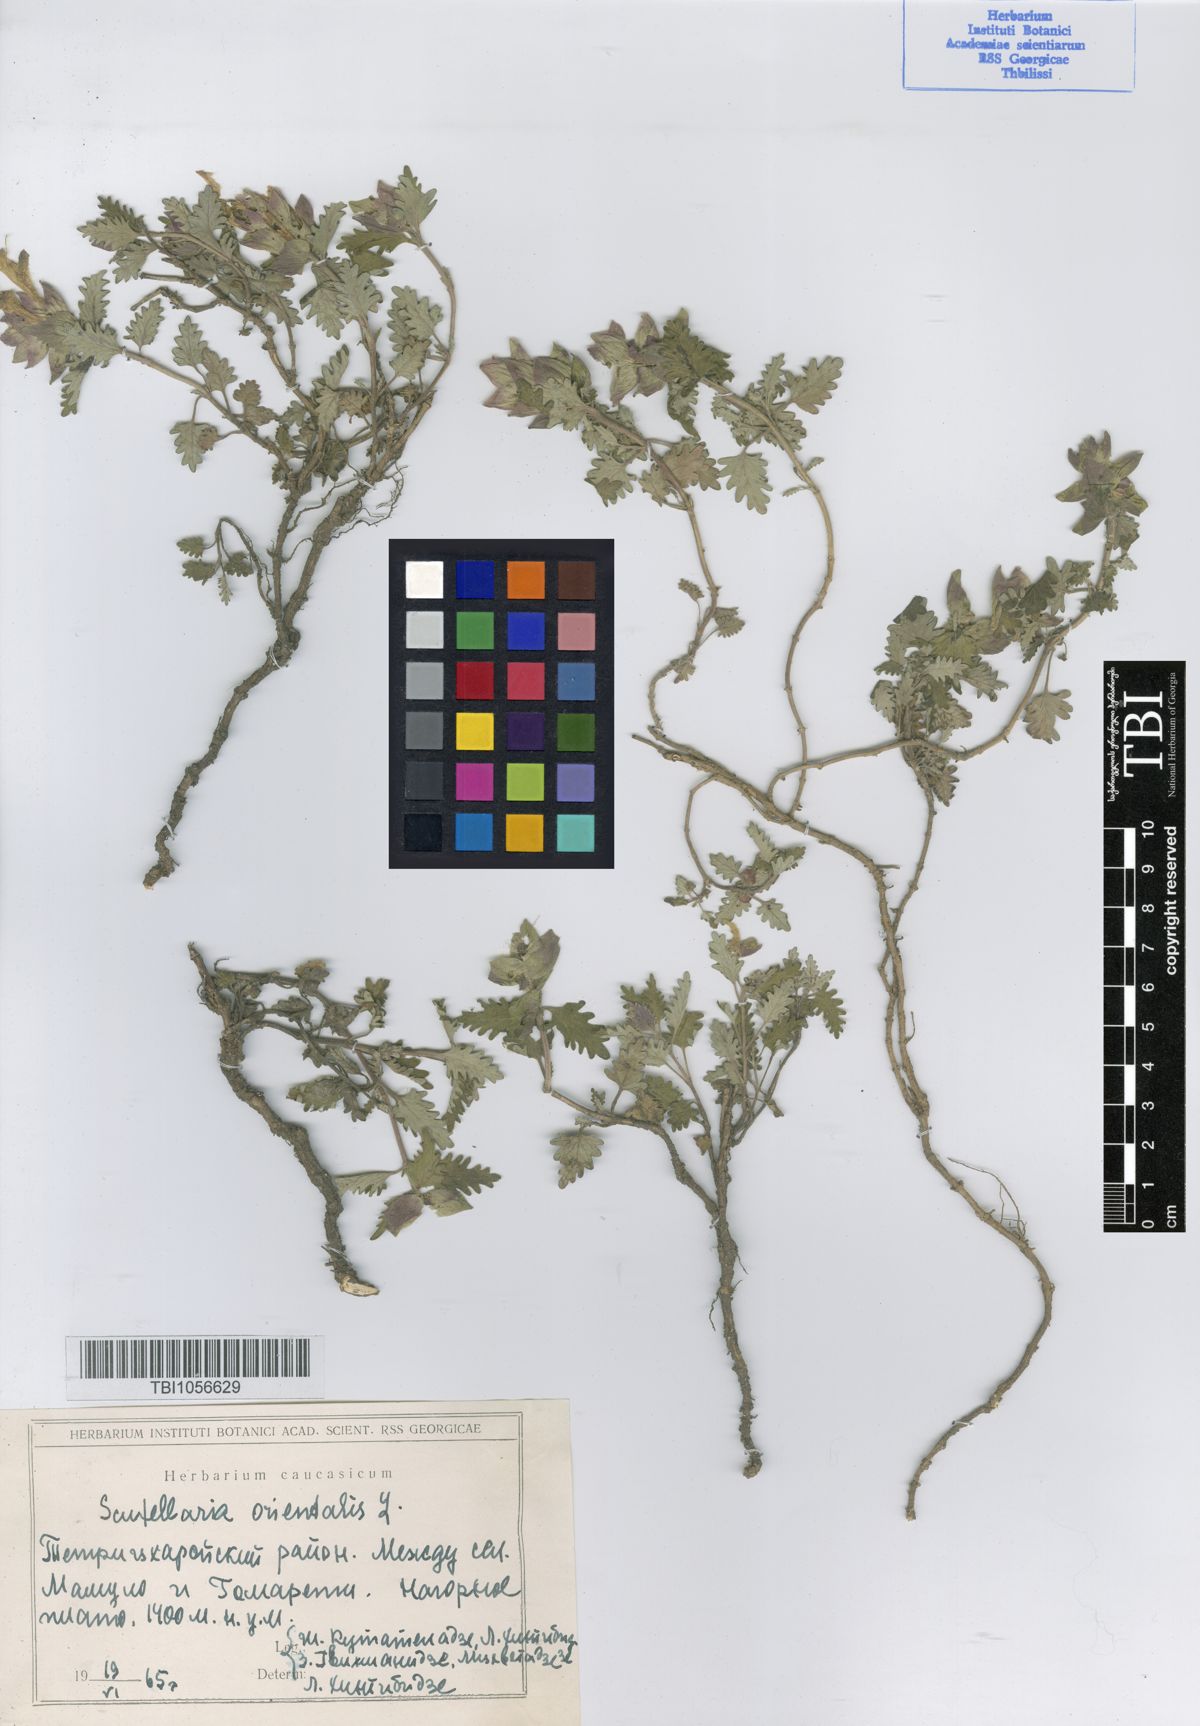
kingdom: Plantae
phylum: Tracheophyta
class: Magnoliopsida
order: Lamiales
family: Lamiaceae
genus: Scutellaria
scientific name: Scutellaria orientalis
